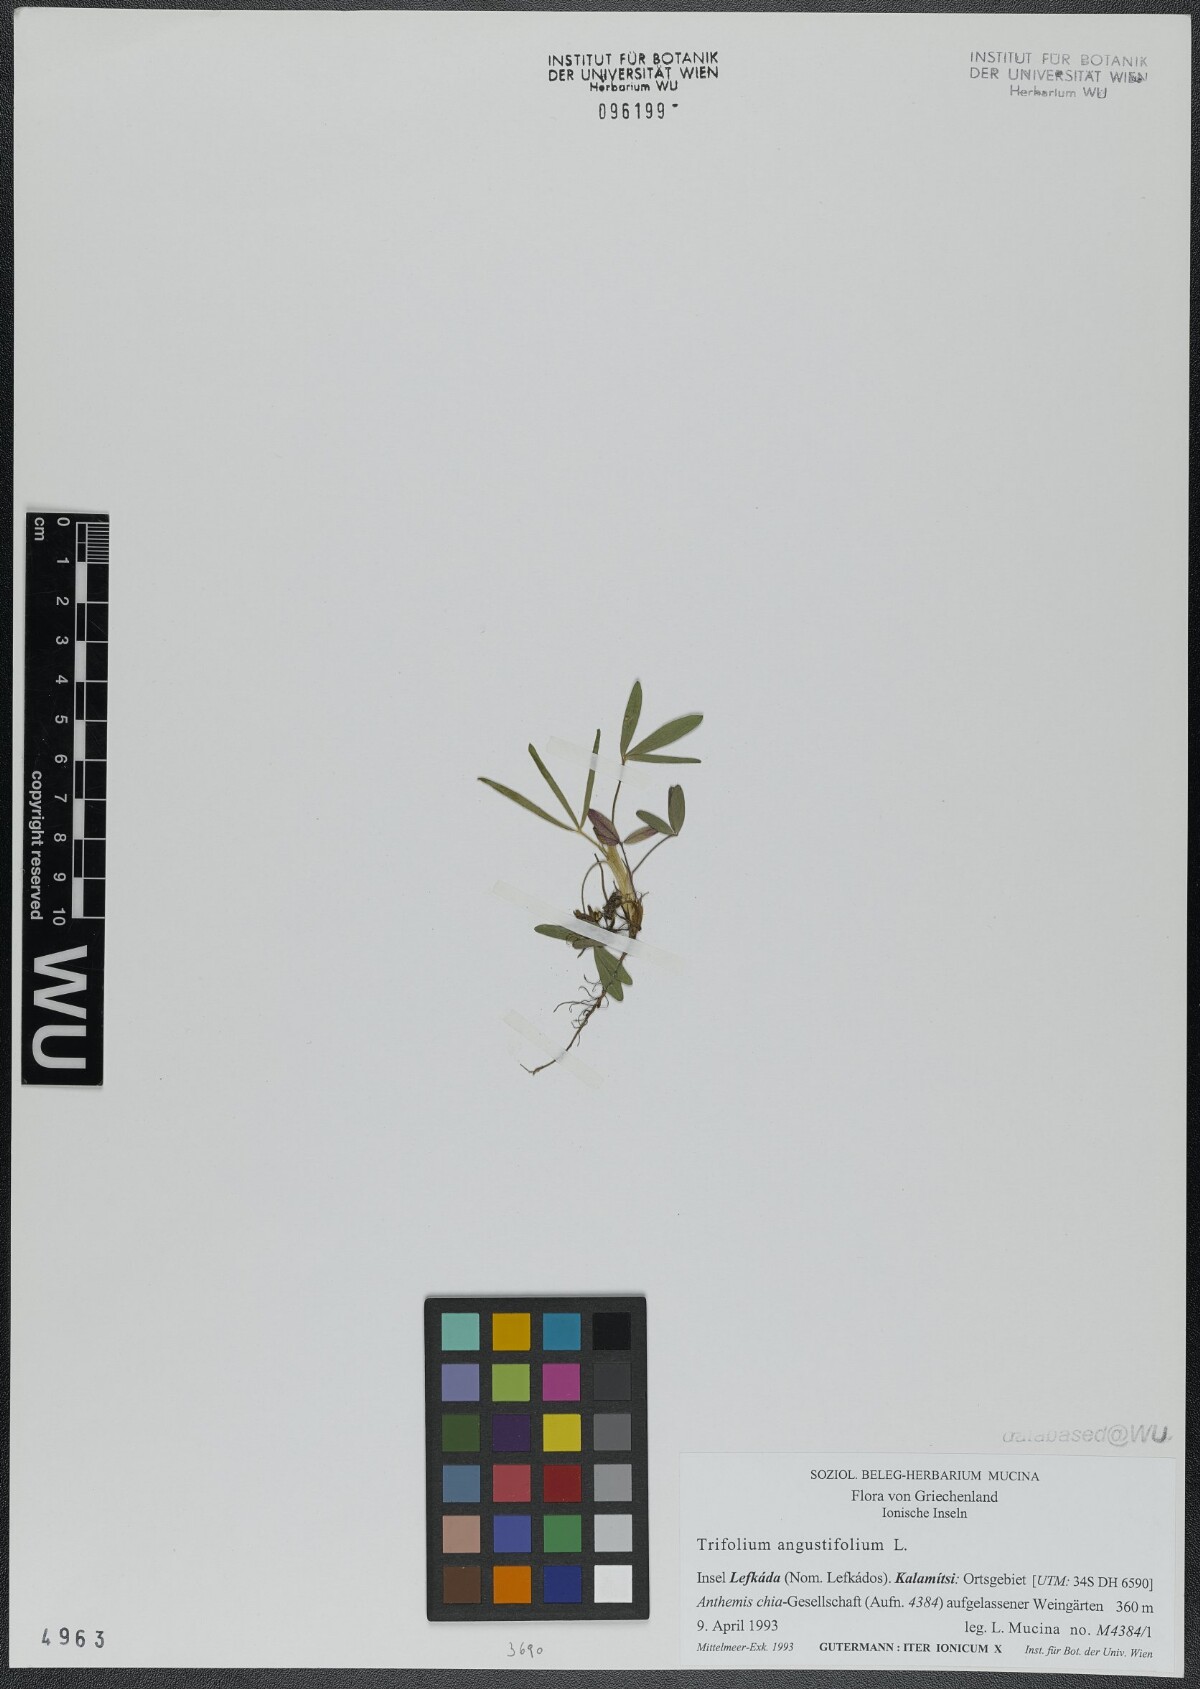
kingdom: Plantae
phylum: Tracheophyta
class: Magnoliopsida
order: Fabales
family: Fabaceae
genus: Trifolium
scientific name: Trifolium angustifolium
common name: Narrow clover
